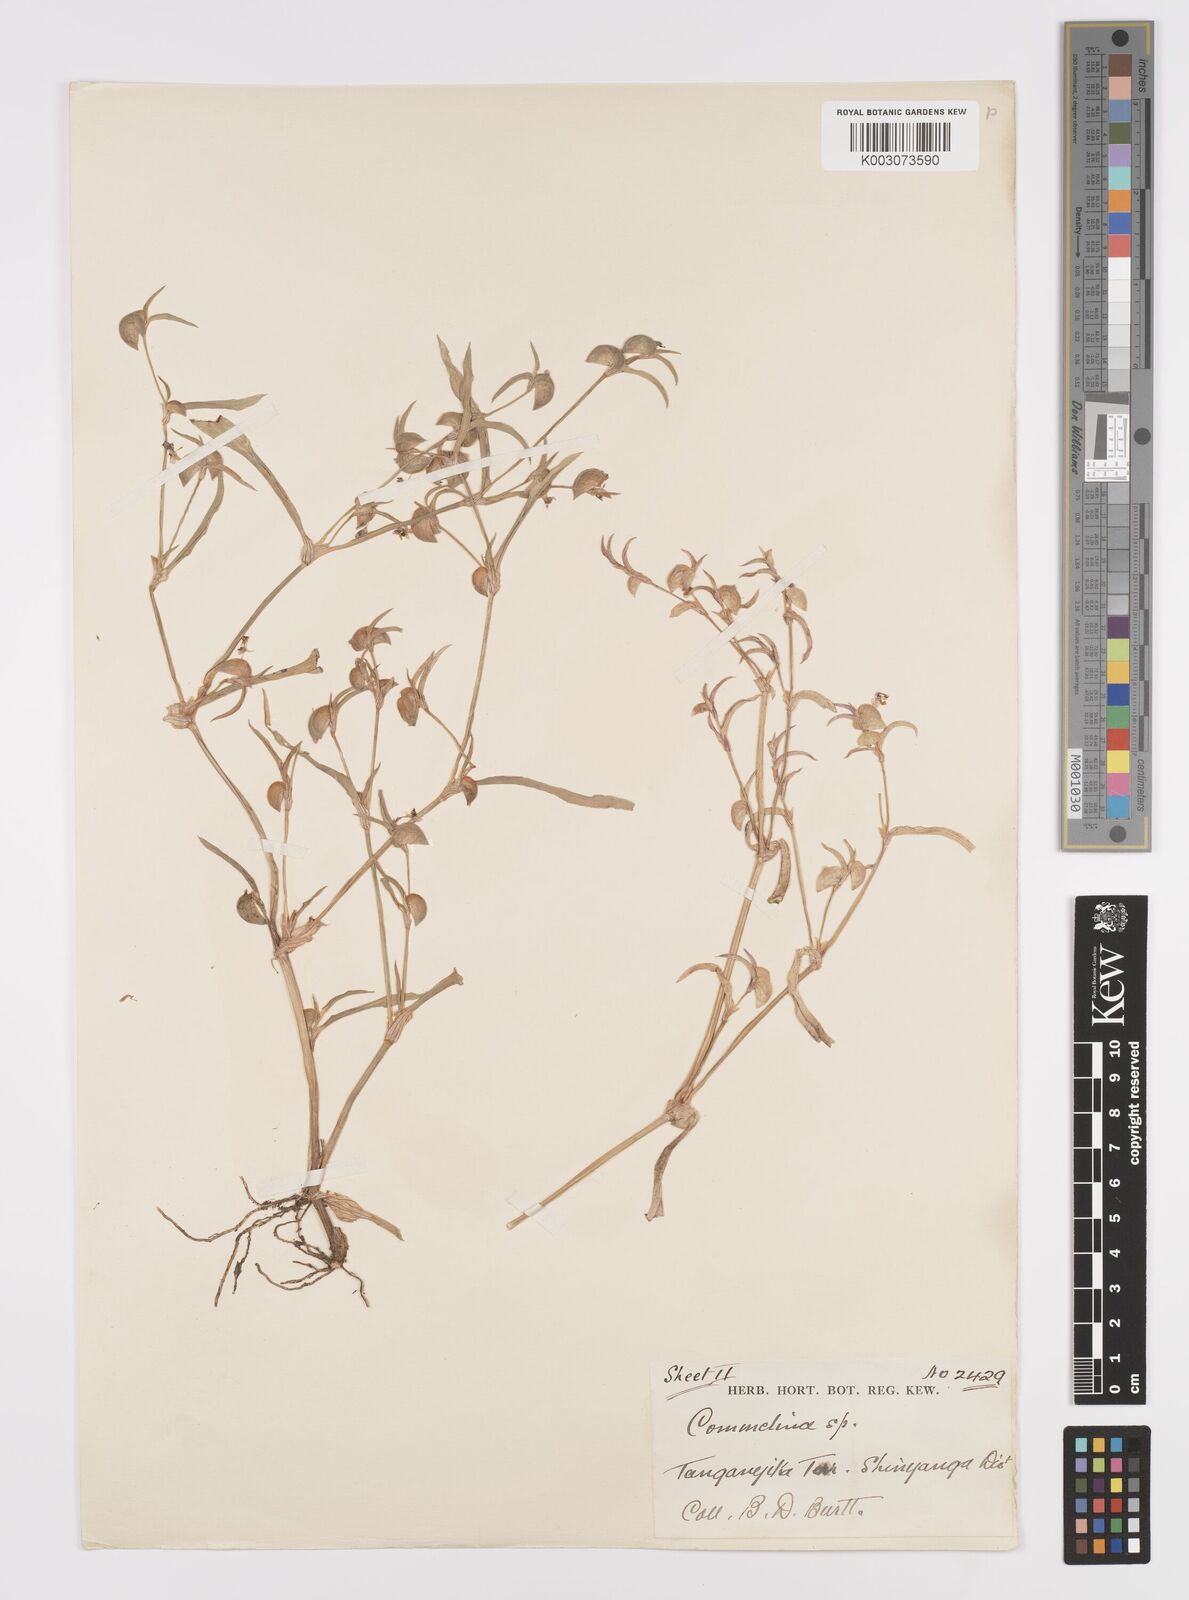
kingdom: Plantae
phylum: Tracheophyta
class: Liliopsida
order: Commelinales
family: Commelinaceae
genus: Commelina
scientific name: Commelina subulata
